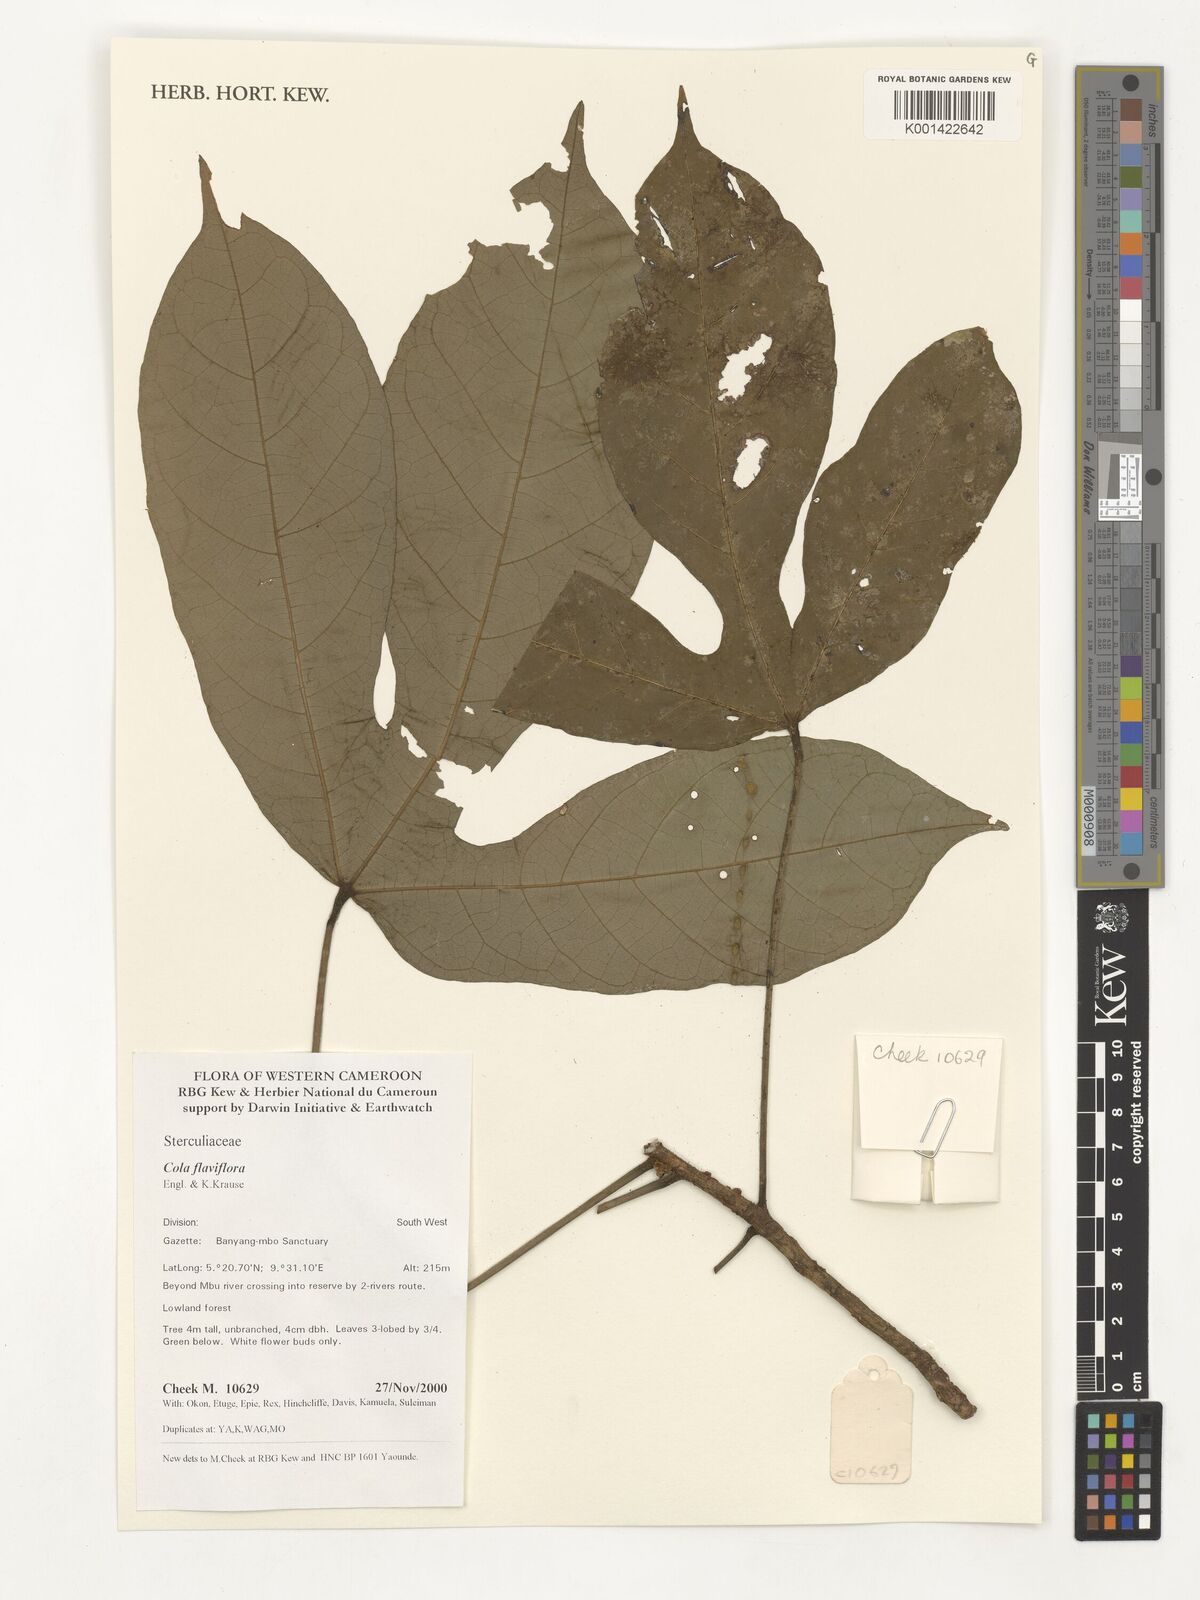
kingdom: Plantae
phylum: Tracheophyta
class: Magnoliopsida
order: Malvales
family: Malvaceae
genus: Cola
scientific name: Cola flaviflora
